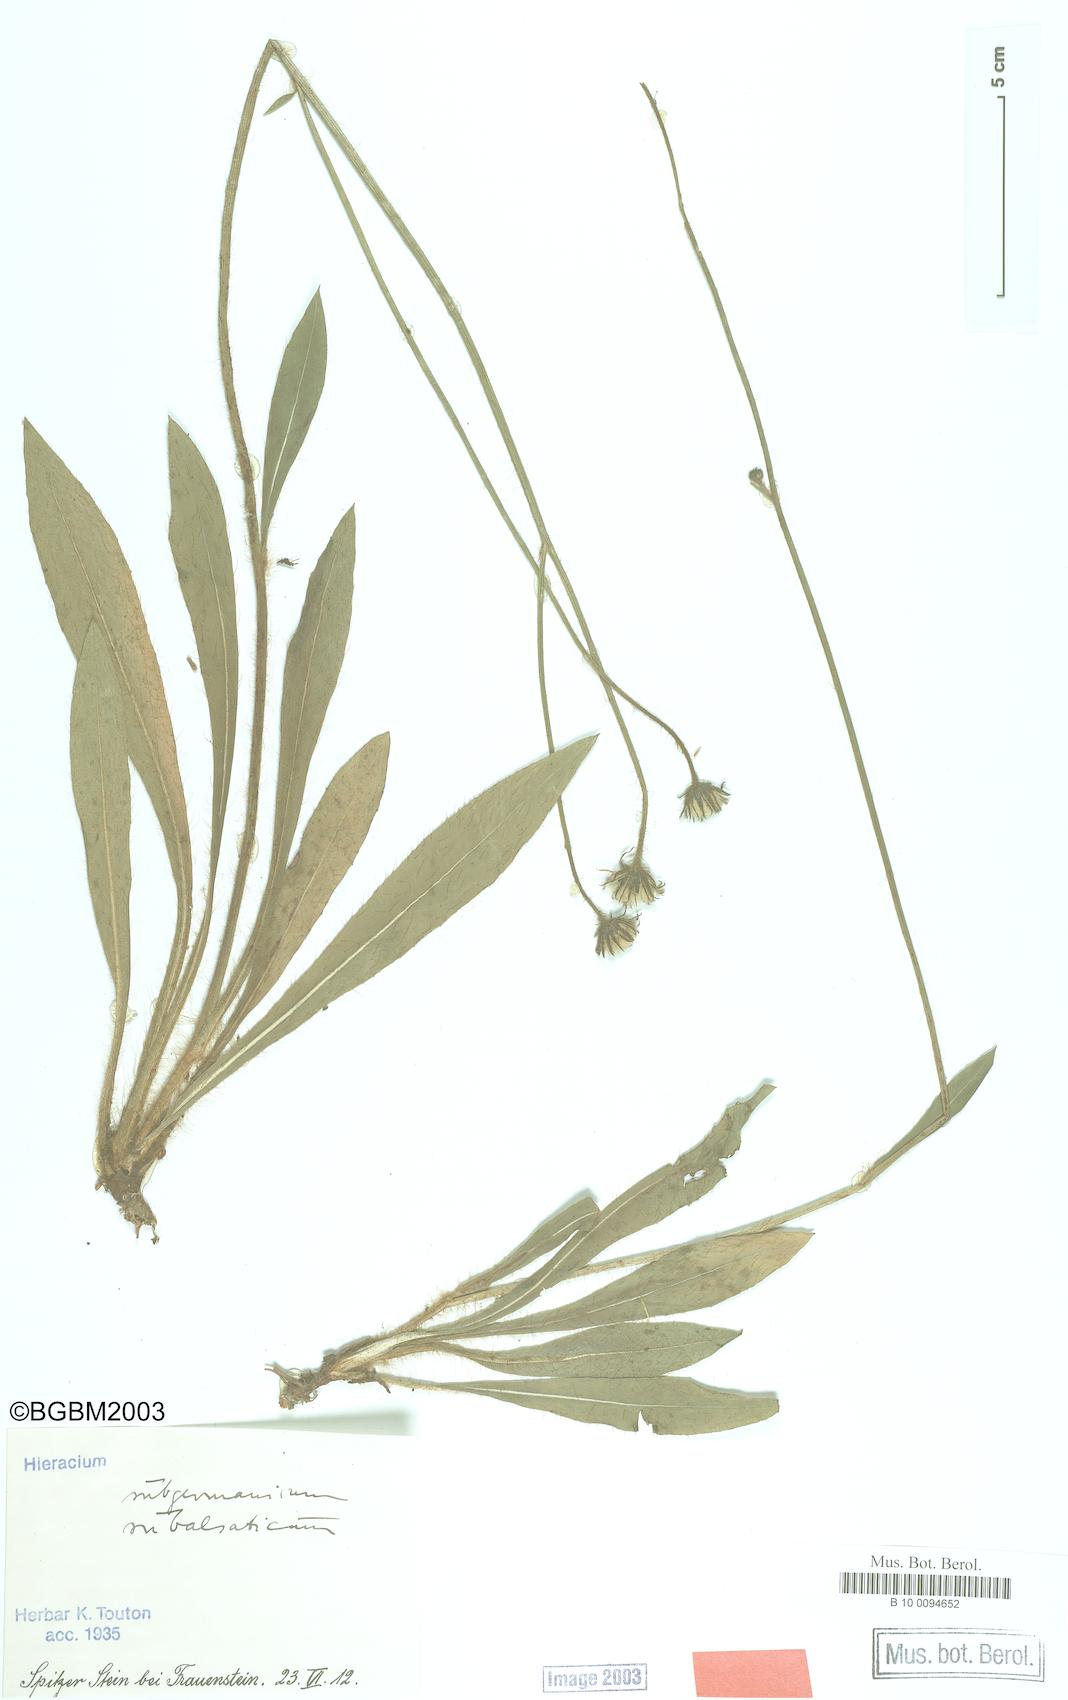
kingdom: Plantae
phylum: Tracheophyta
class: Magnoliopsida
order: Asterales
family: Asteraceae
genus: Pilosella
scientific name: Pilosella pilosellina
